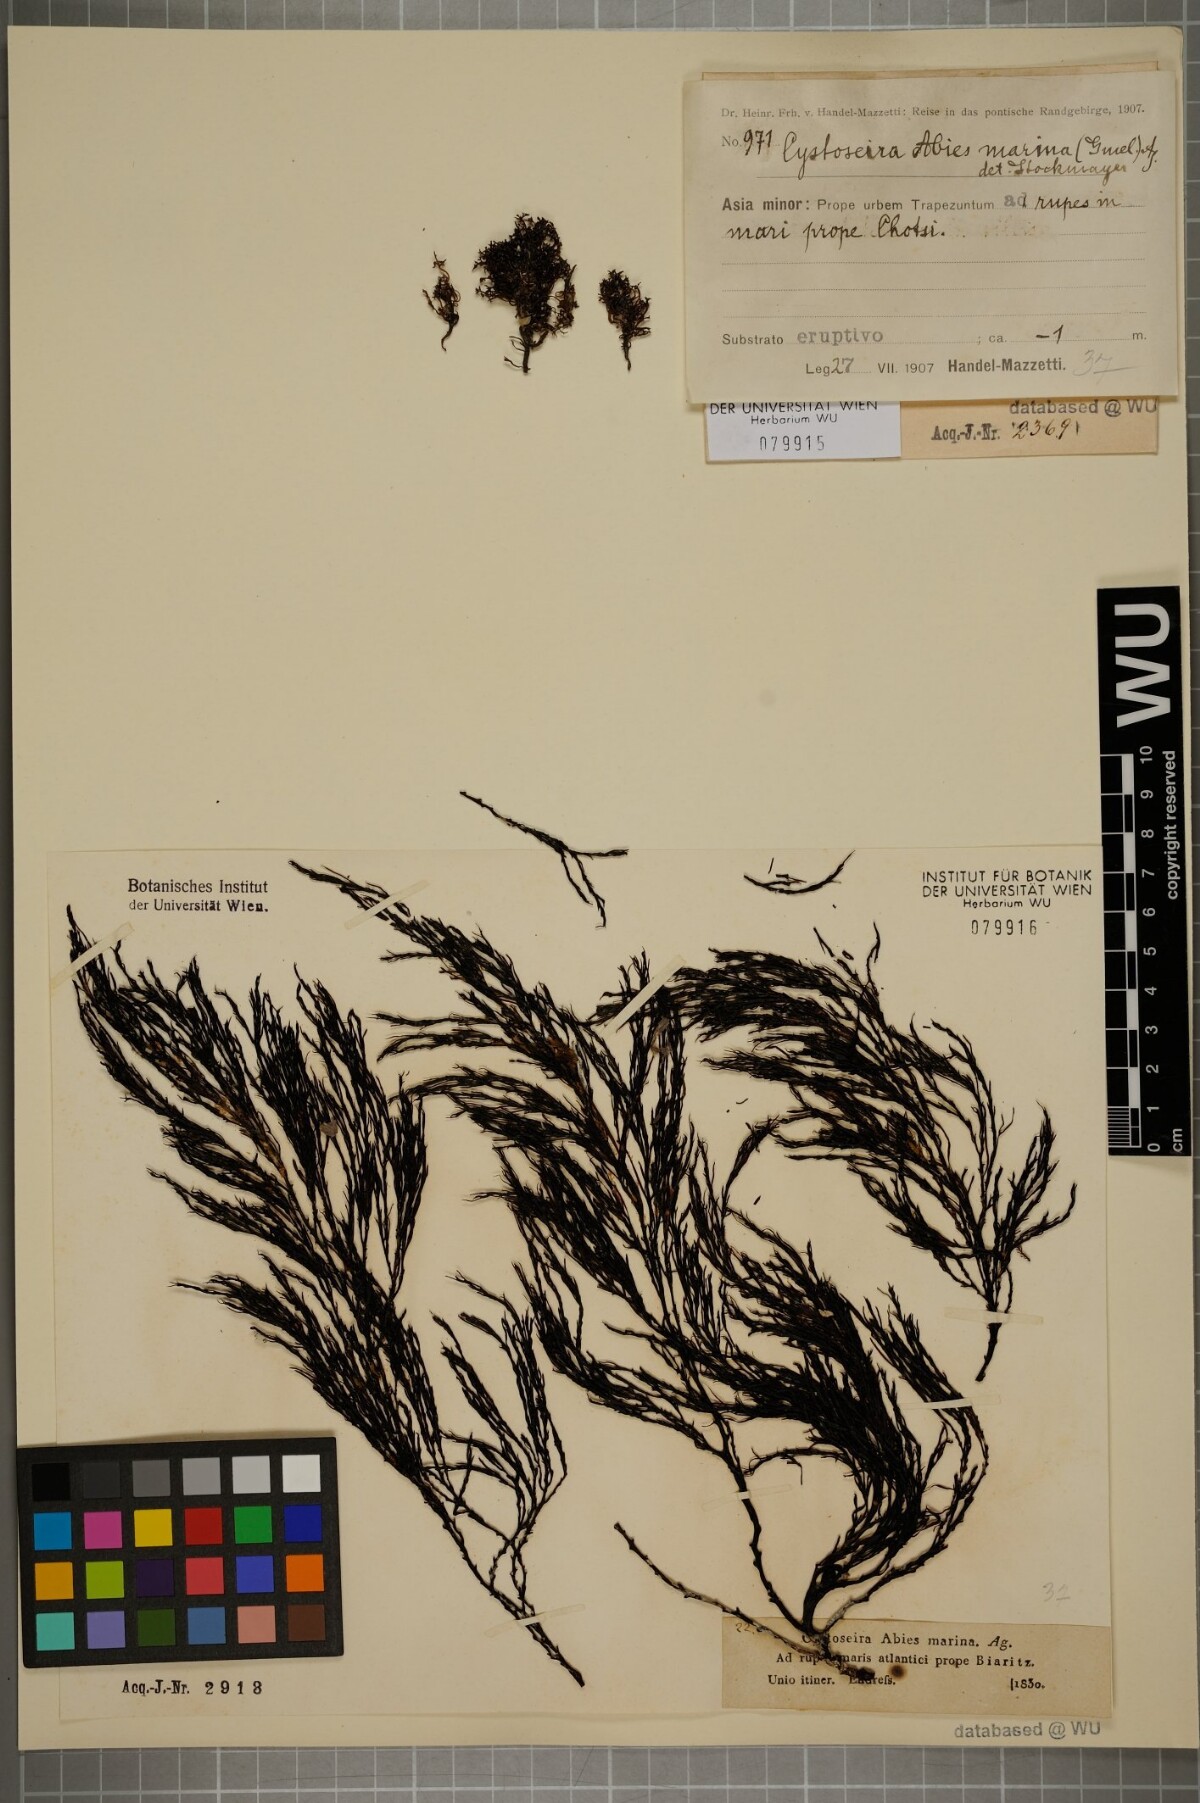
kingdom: Chromista
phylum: Ochrophyta
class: Phaeophyceae
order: Fucales
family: Sargassaceae
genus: Cystoseira
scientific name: Cystoseira Gongolaria abies-marina
